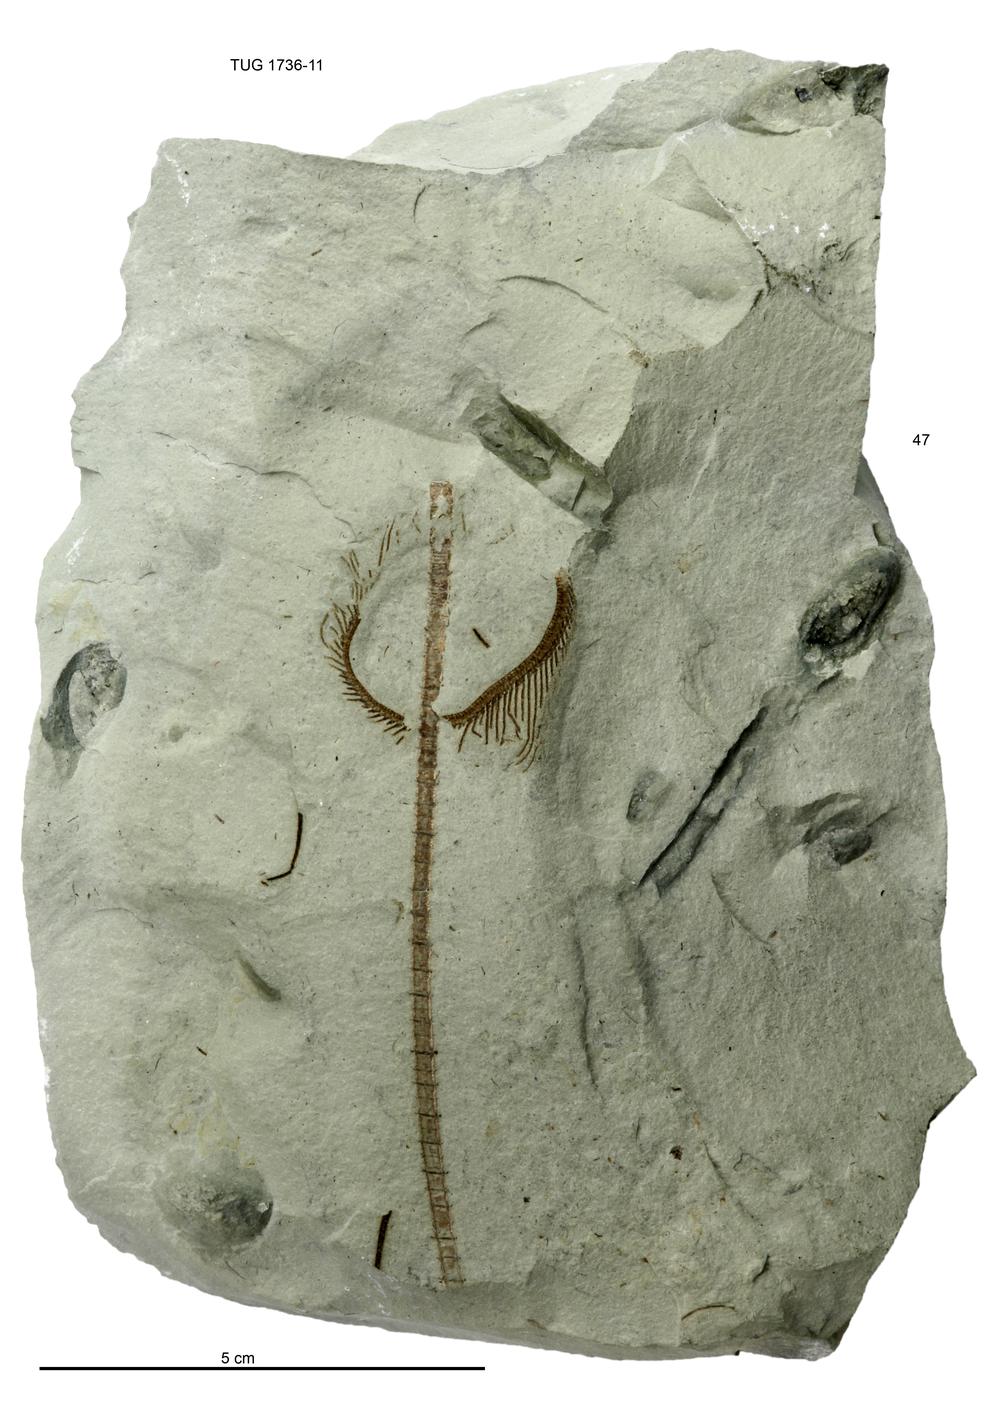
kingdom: Animalia
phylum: Echinodermata
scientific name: Echinodermata
